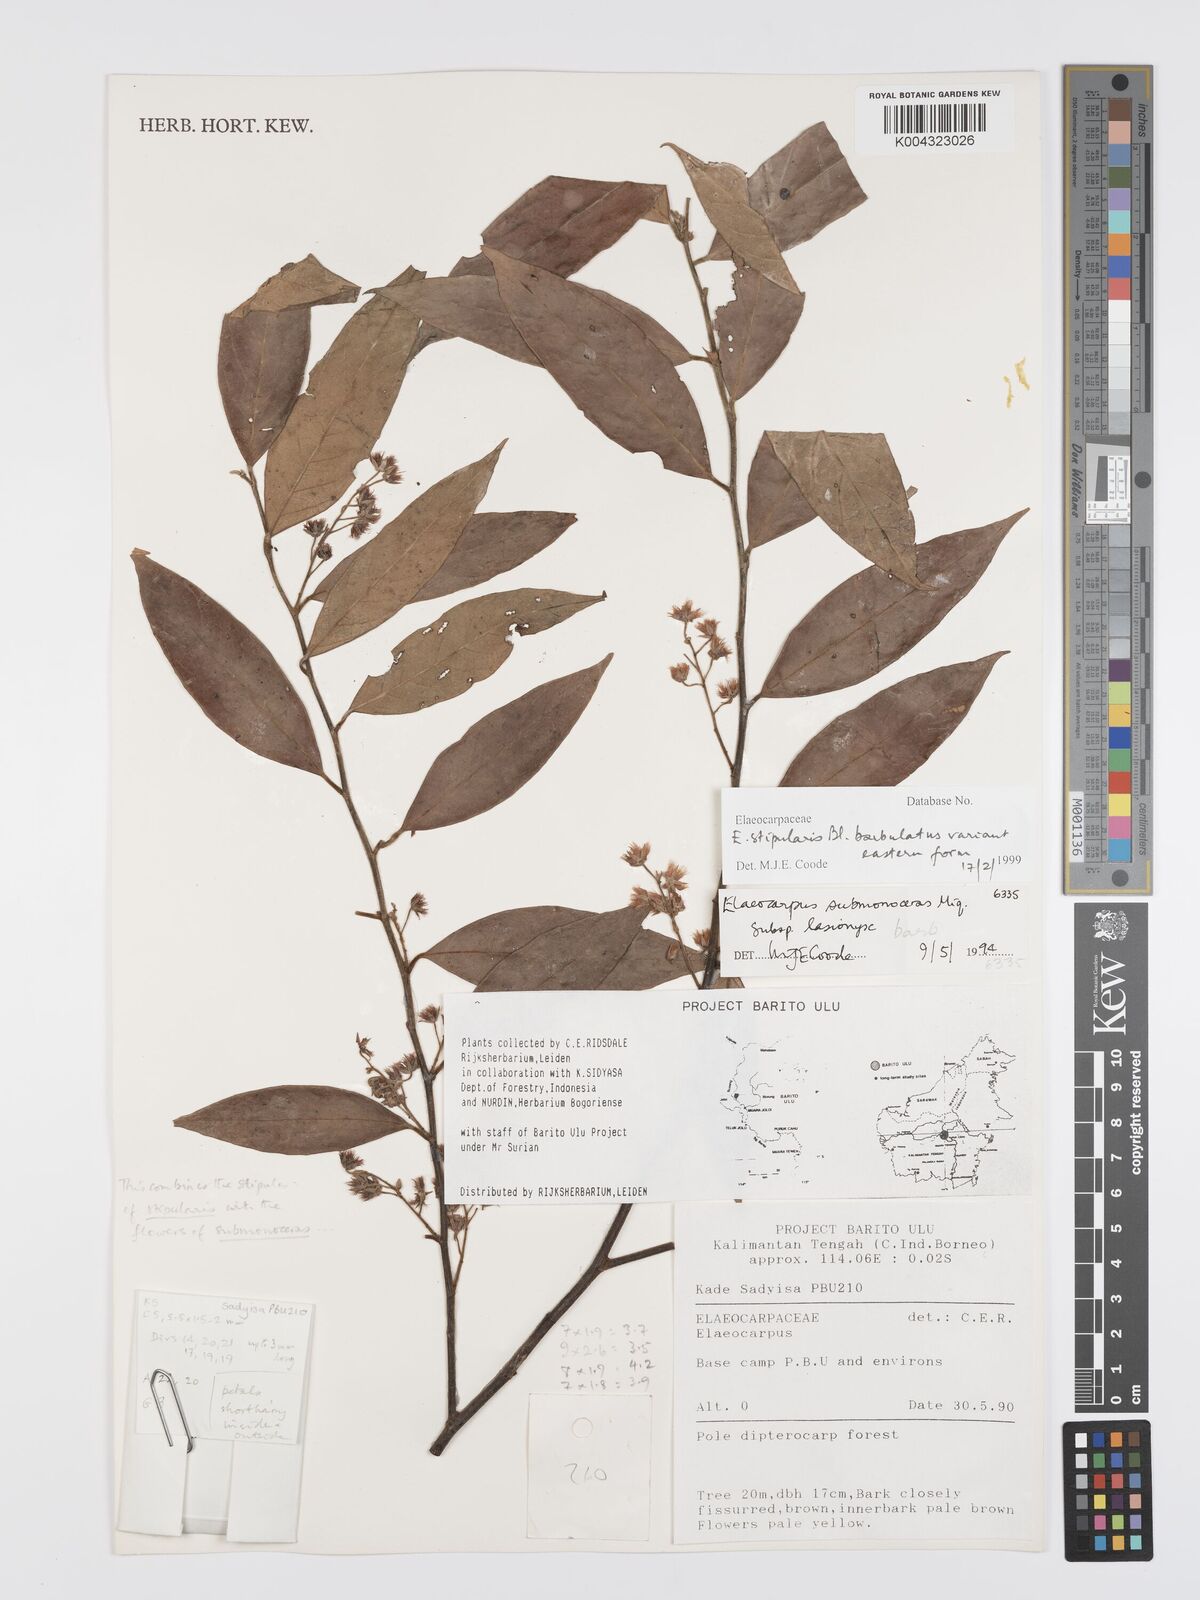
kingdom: Plantae
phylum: Tracheophyta
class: Magnoliopsida
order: Oxalidales
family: Elaeocarpaceae
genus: Elaeocarpus
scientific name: Elaeocarpus barbulatus
